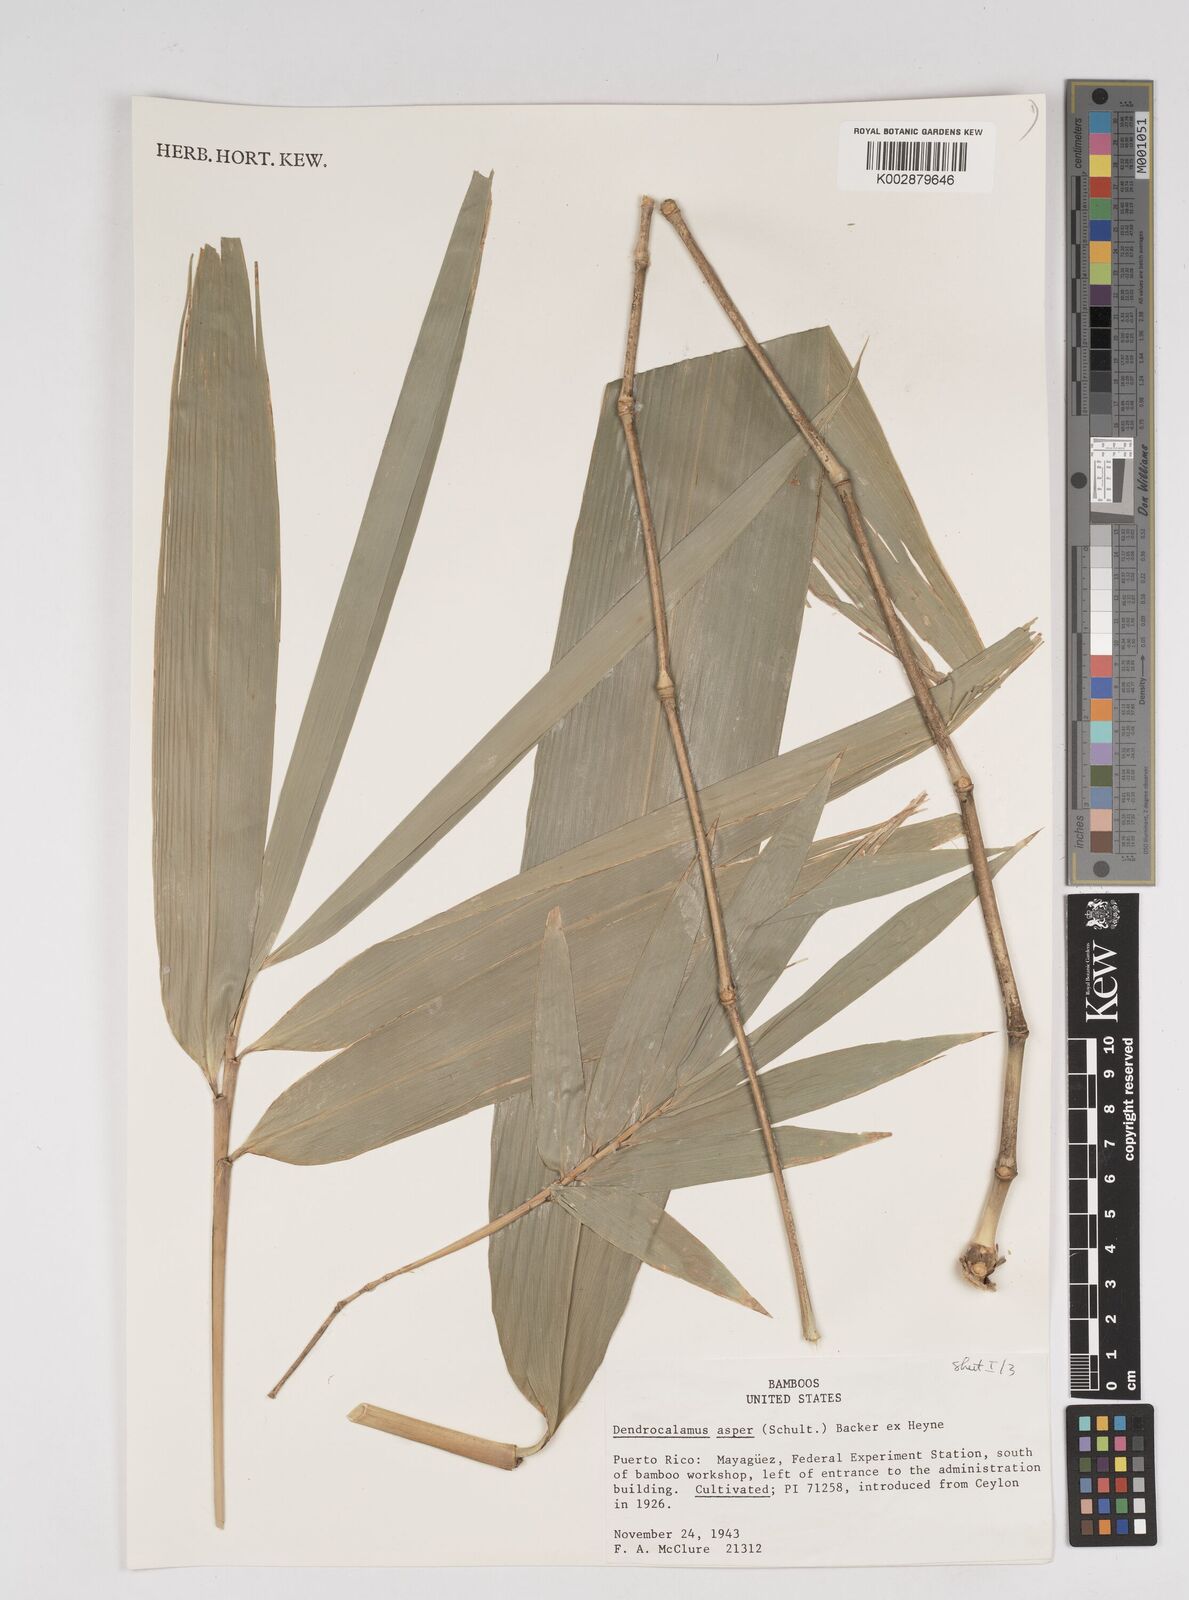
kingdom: Plantae
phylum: Tracheophyta
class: Liliopsida
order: Poales
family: Poaceae
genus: Dendrocalamus
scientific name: Dendrocalamus asper
